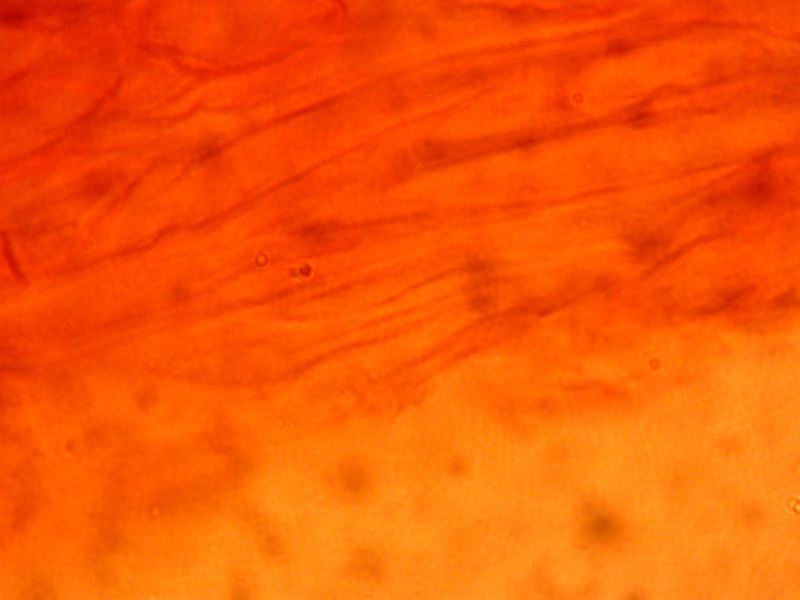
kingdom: Fungi
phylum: Basidiomycota
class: Agaricomycetes
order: Agaricales
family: Entolomataceae
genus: Entoloma
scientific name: Entoloma caeruleopolitum
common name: blåpoleret rødblad
